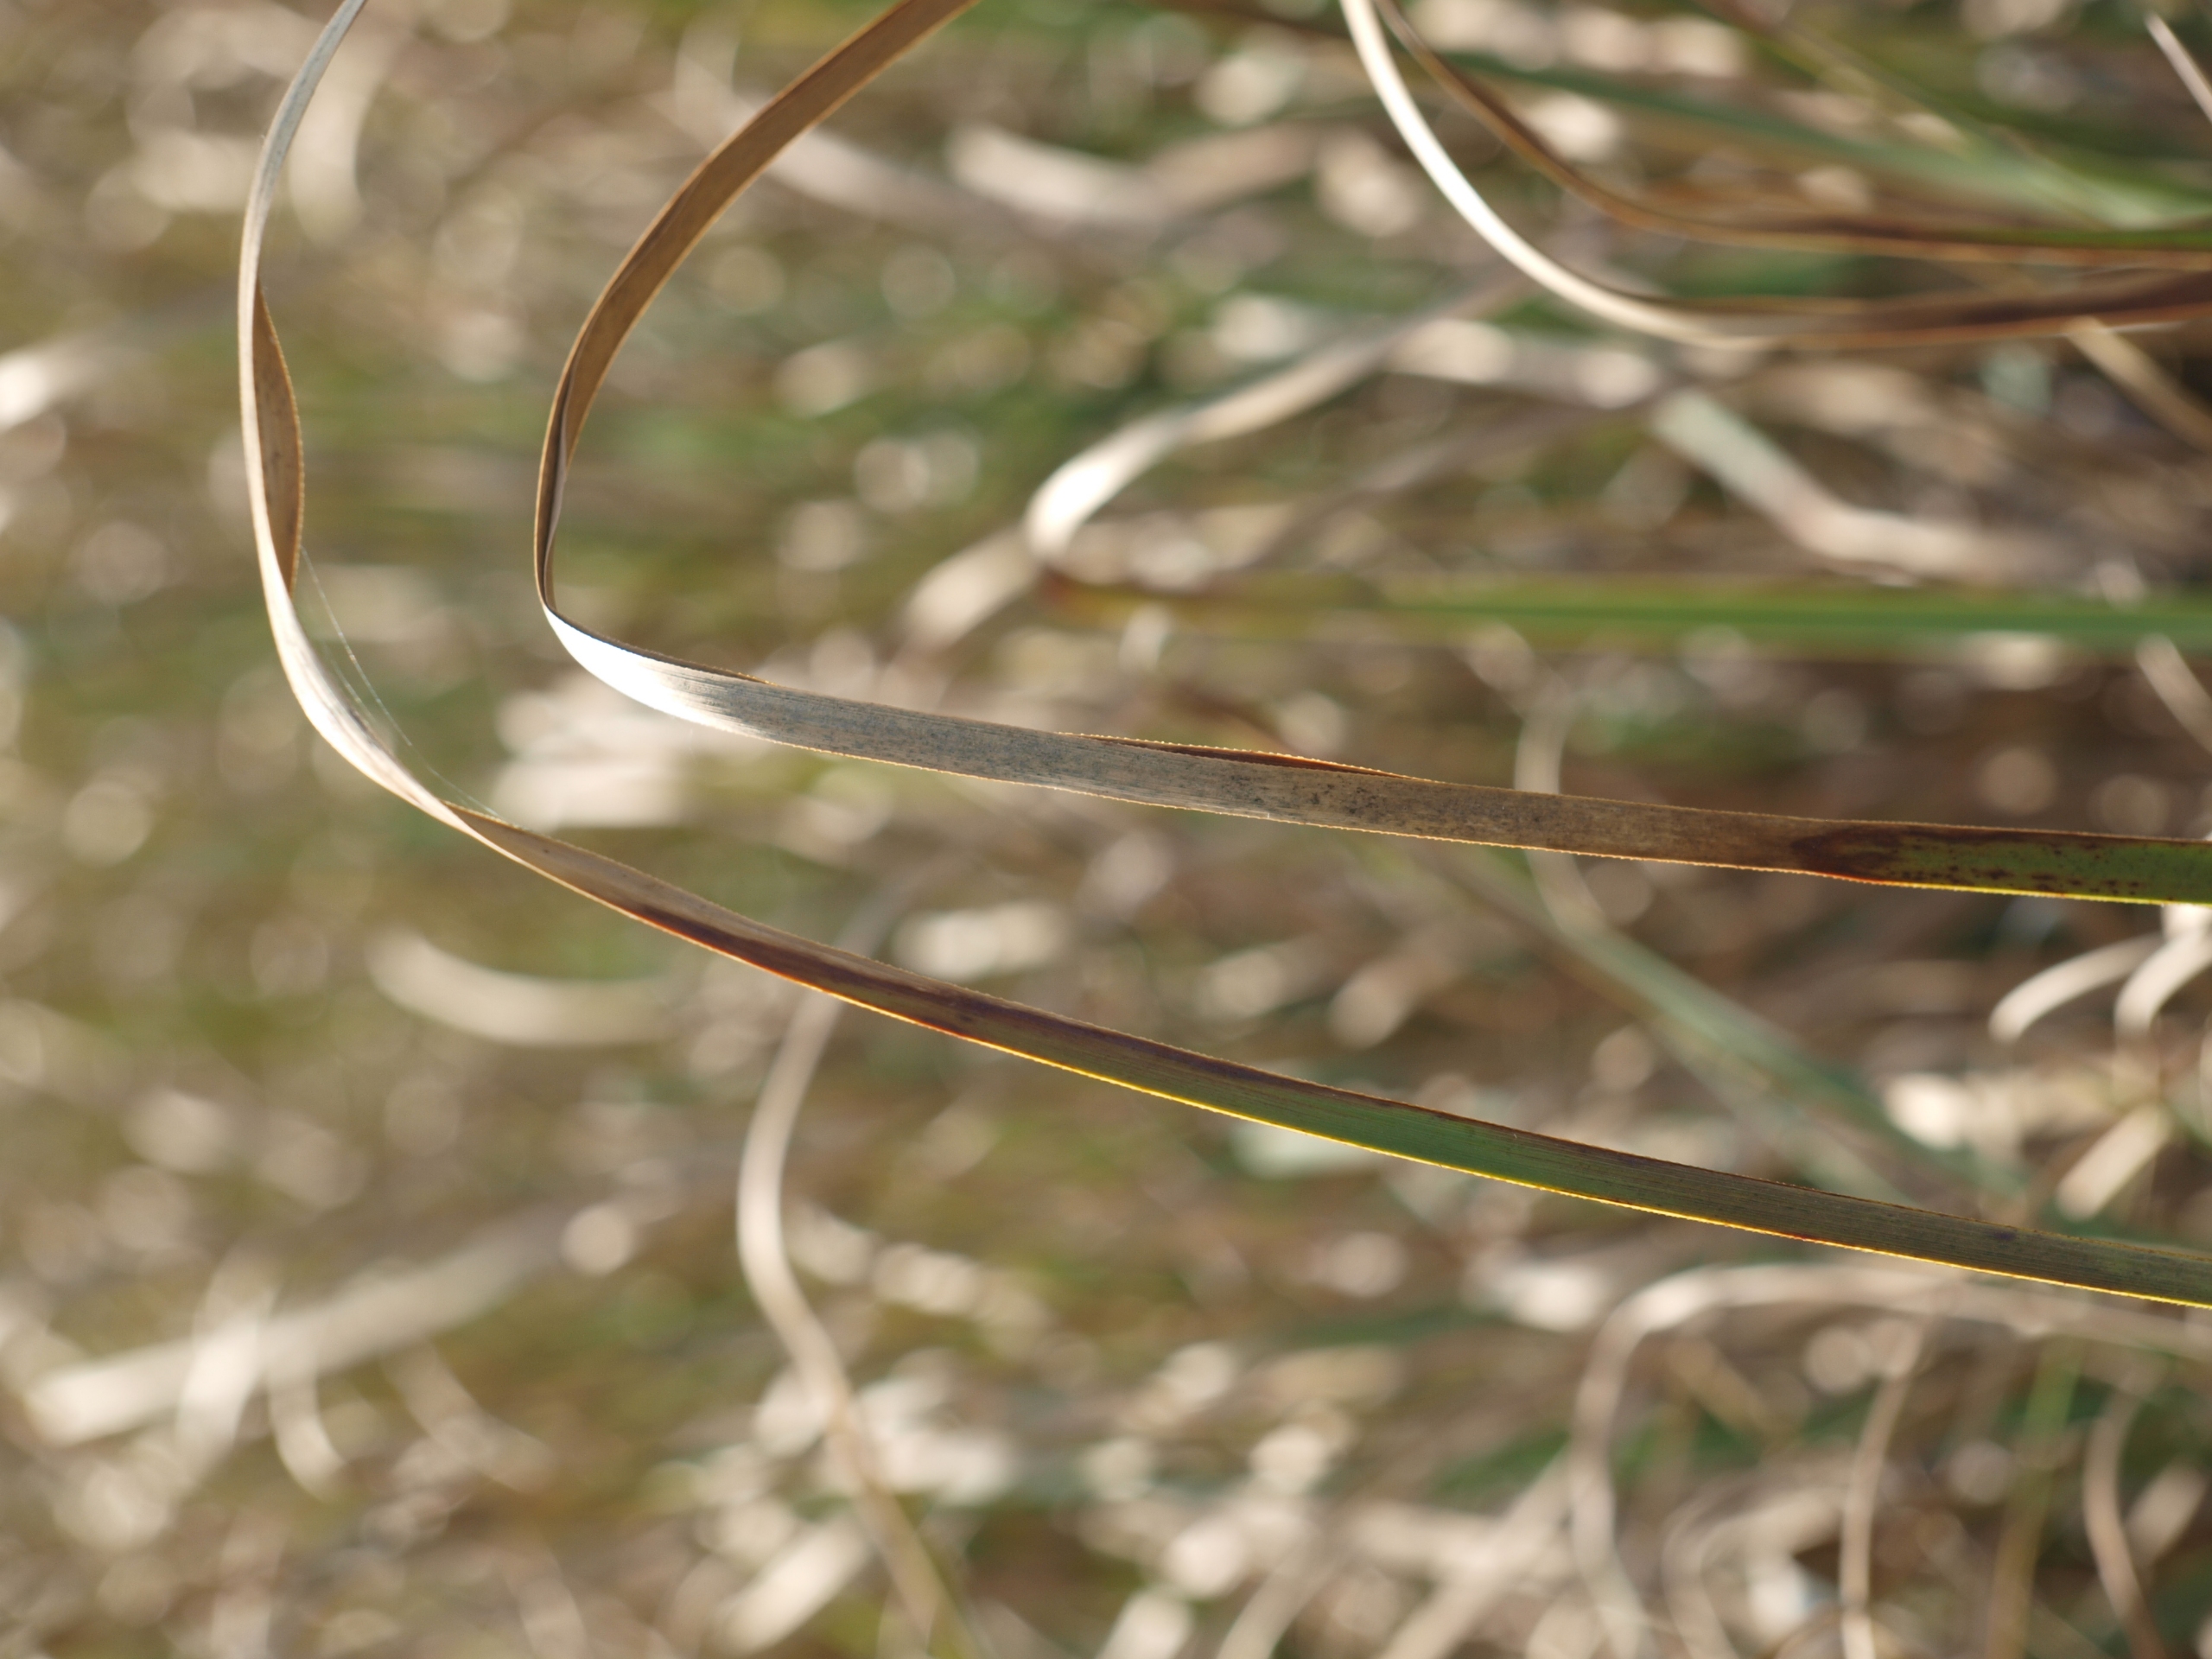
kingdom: Plantae
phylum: Tracheophyta
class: Liliopsida
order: Poales
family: Cyperaceae
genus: Cladium
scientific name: Cladium mariscus
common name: Hvas avneknippe
